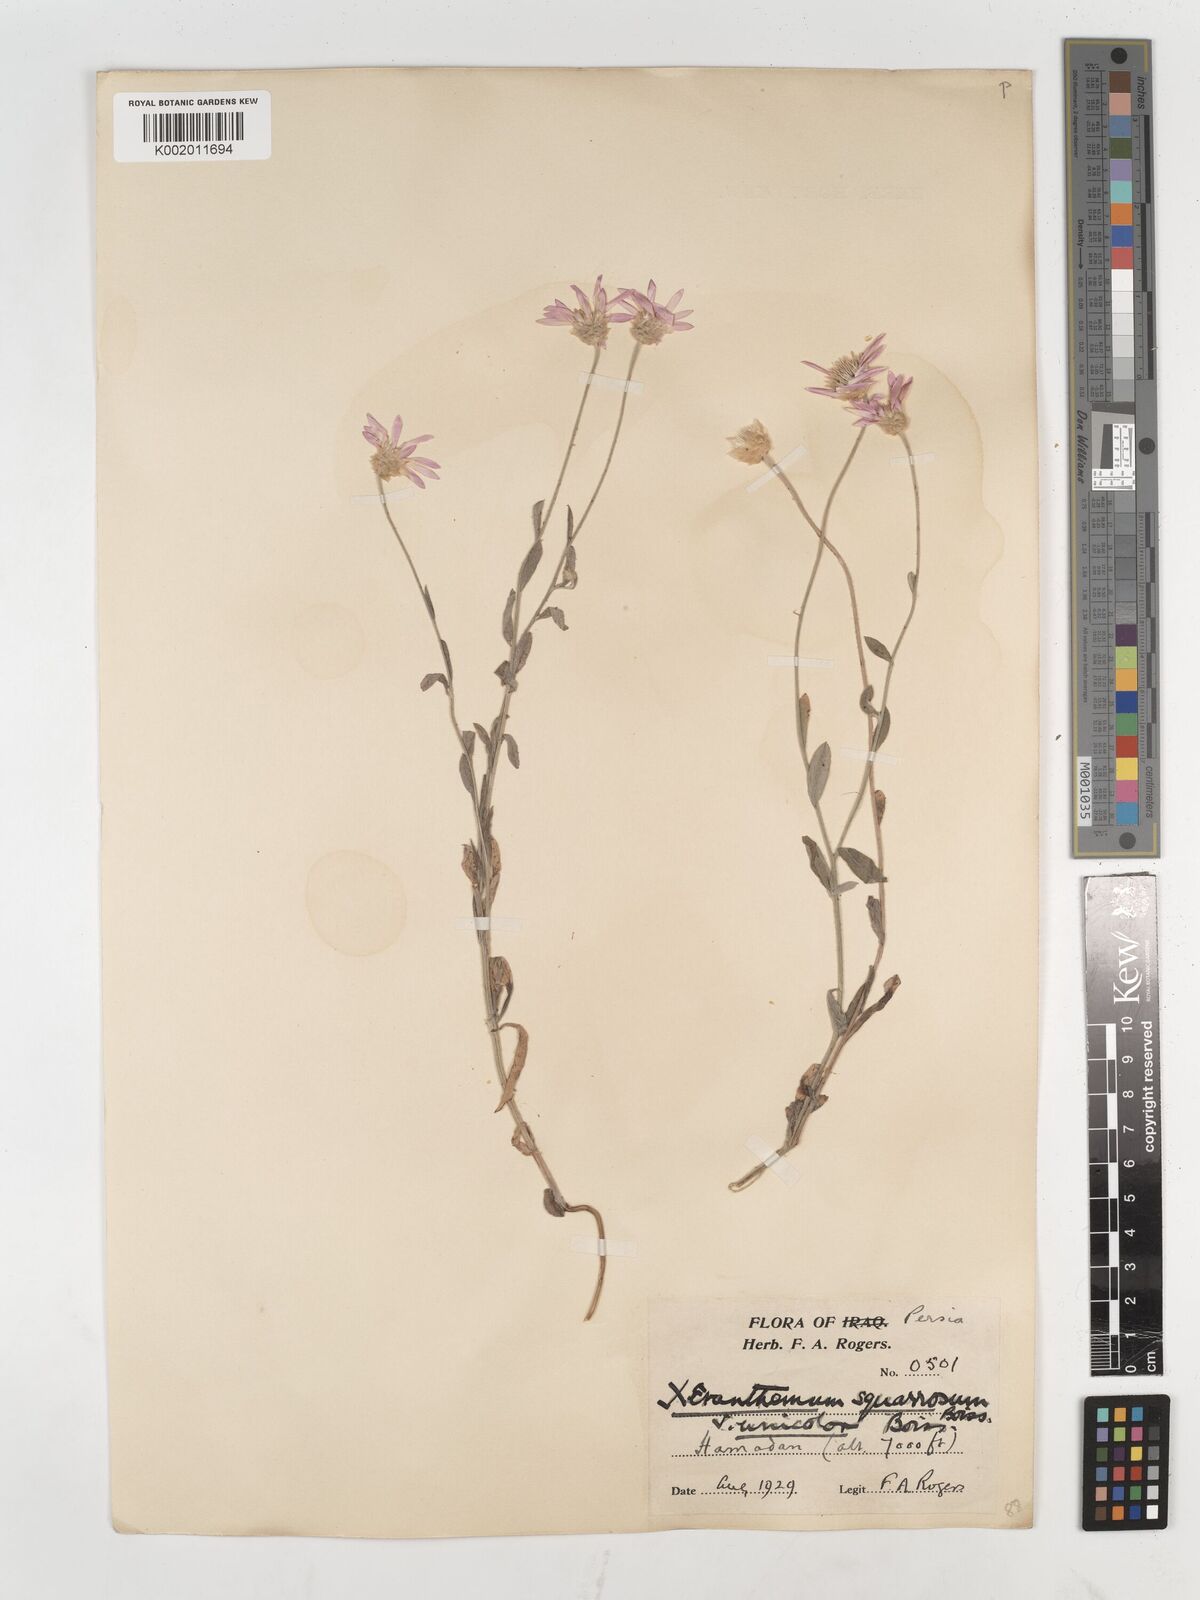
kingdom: Plantae
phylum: Tracheophyta
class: Magnoliopsida
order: Asterales
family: Asteraceae
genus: Xeranthemum
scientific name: Xeranthemum squarrosum
